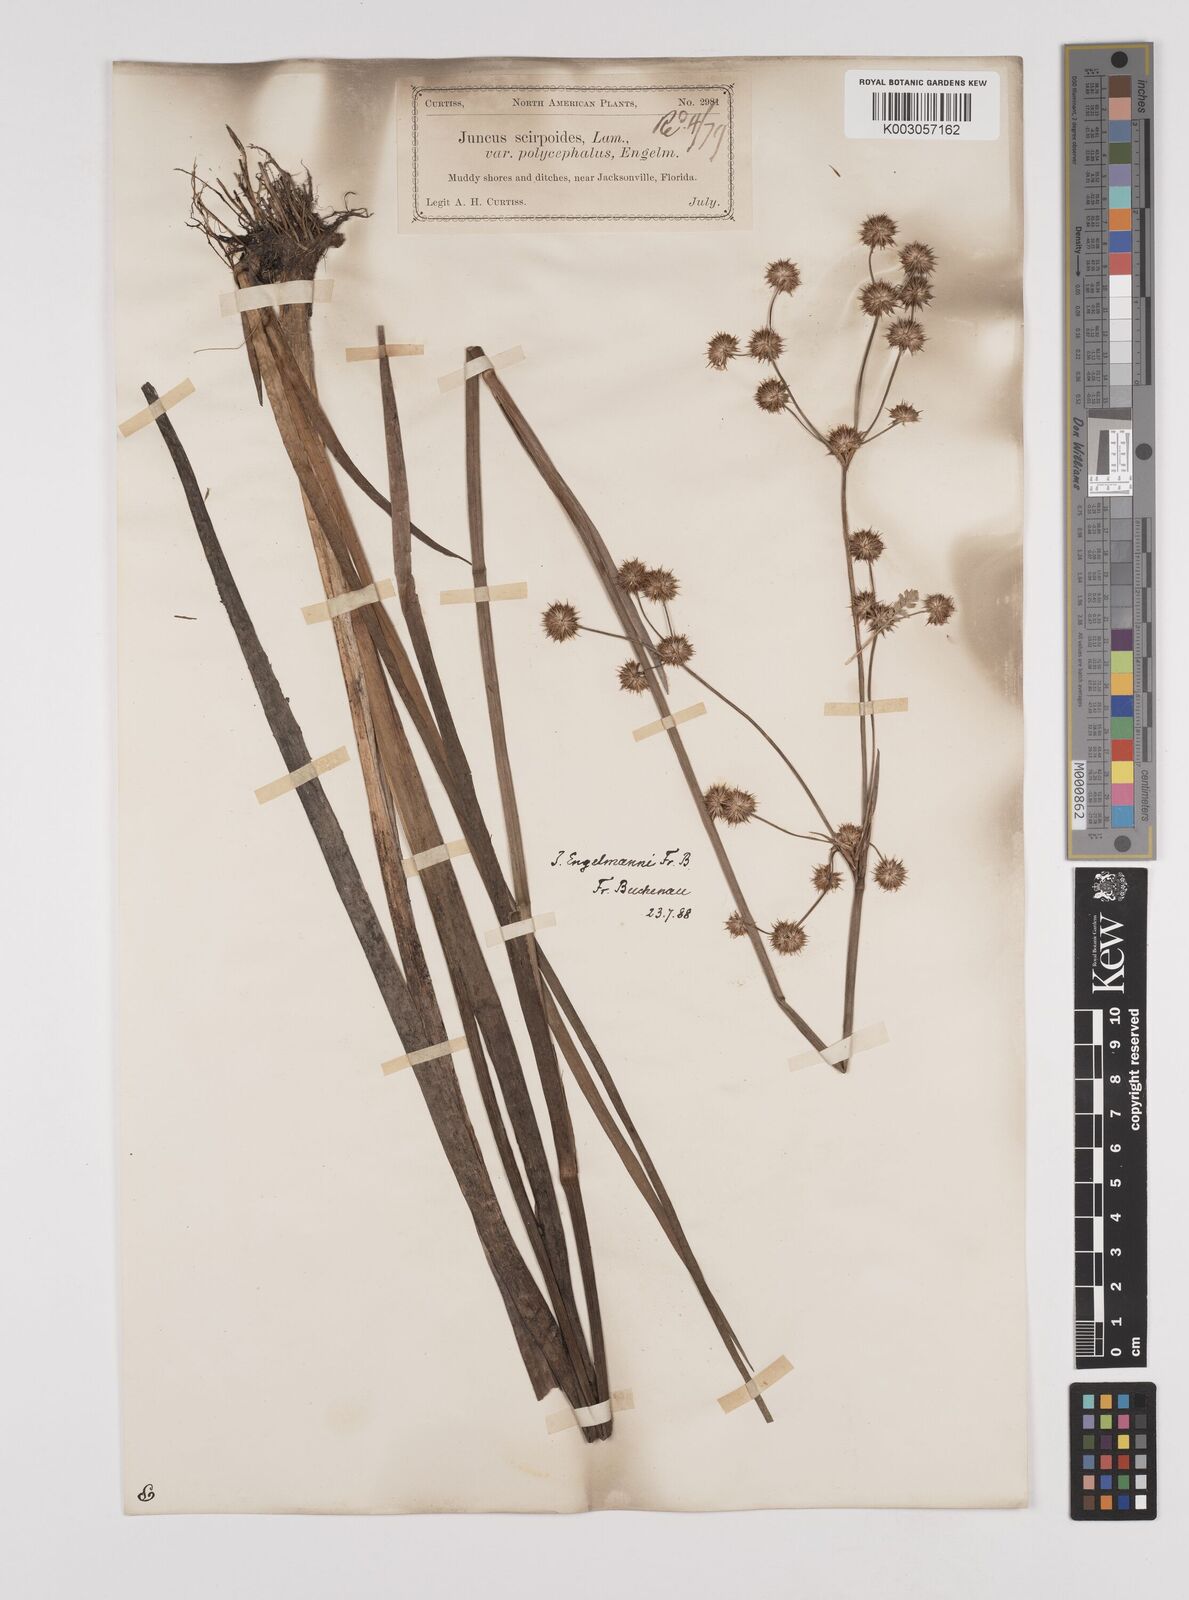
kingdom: Plantae
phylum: Tracheophyta
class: Liliopsida
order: Poales
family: Juncaceae
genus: Juncus
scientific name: Juncus articulatus
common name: Jointed rush
